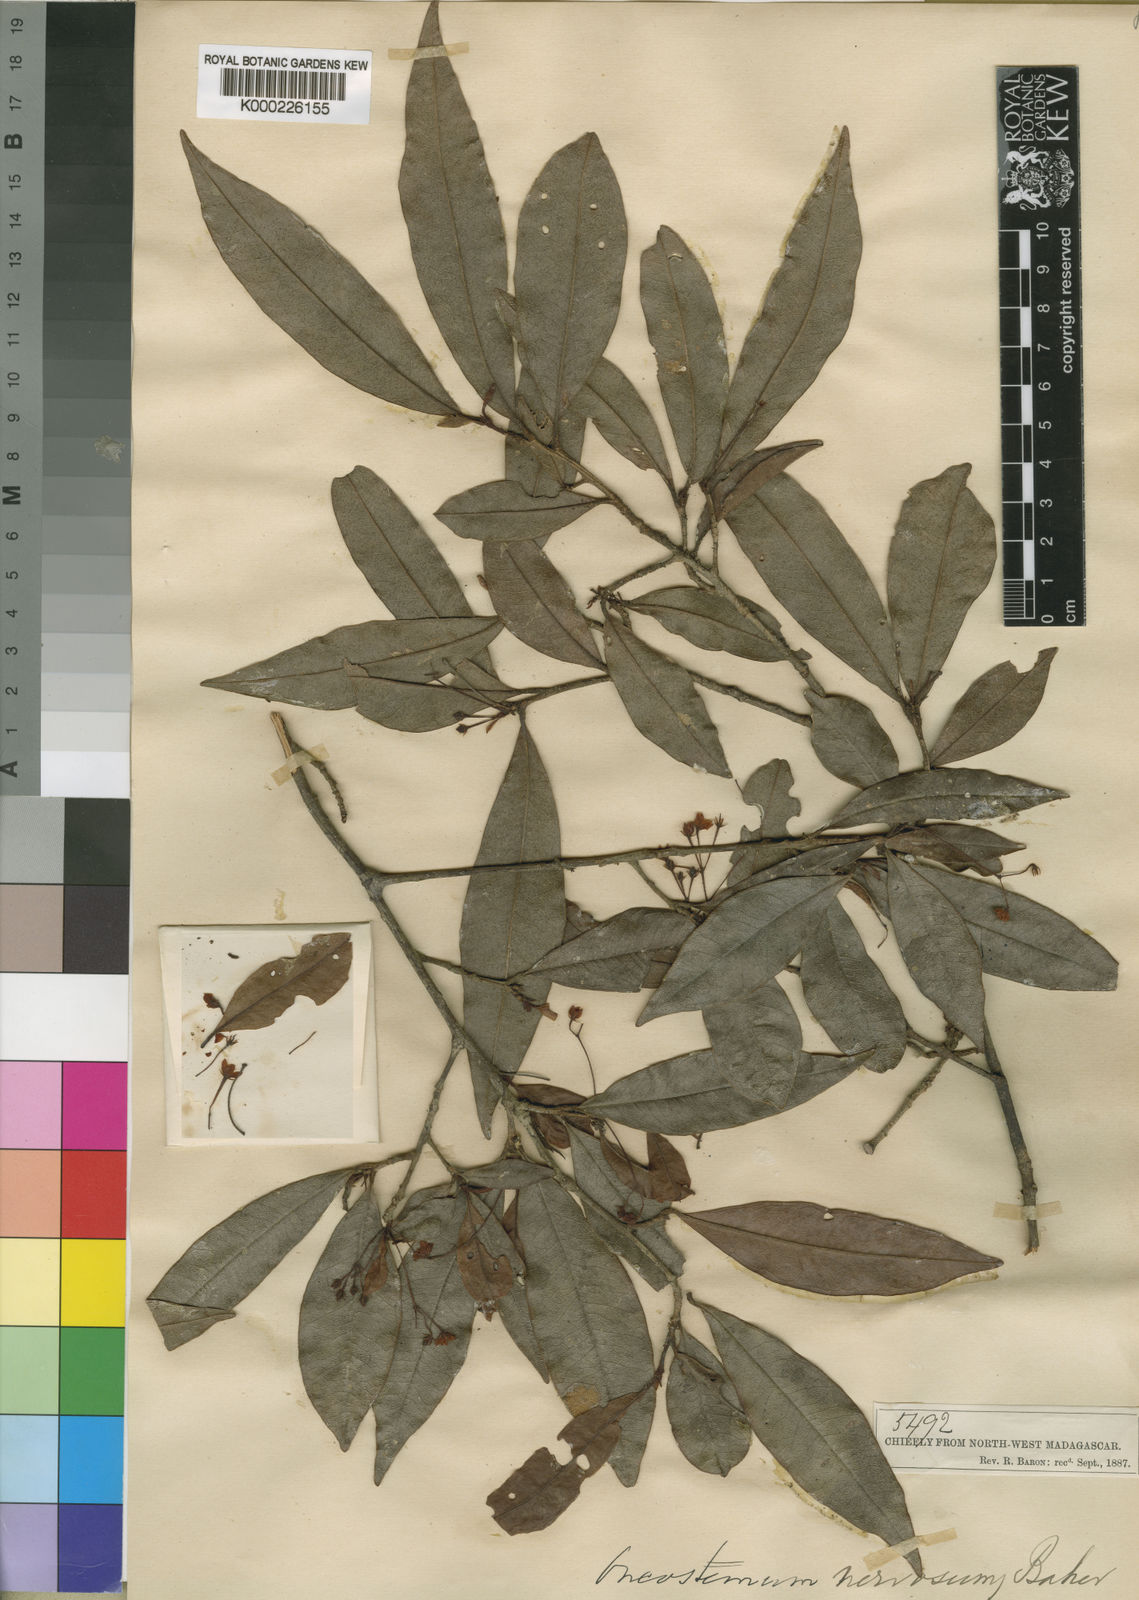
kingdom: Plantae
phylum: Tracheophyta
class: Magnoliopsida
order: Ericales
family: Primulaceae
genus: Oncostemum
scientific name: Oncostemum nervosum
